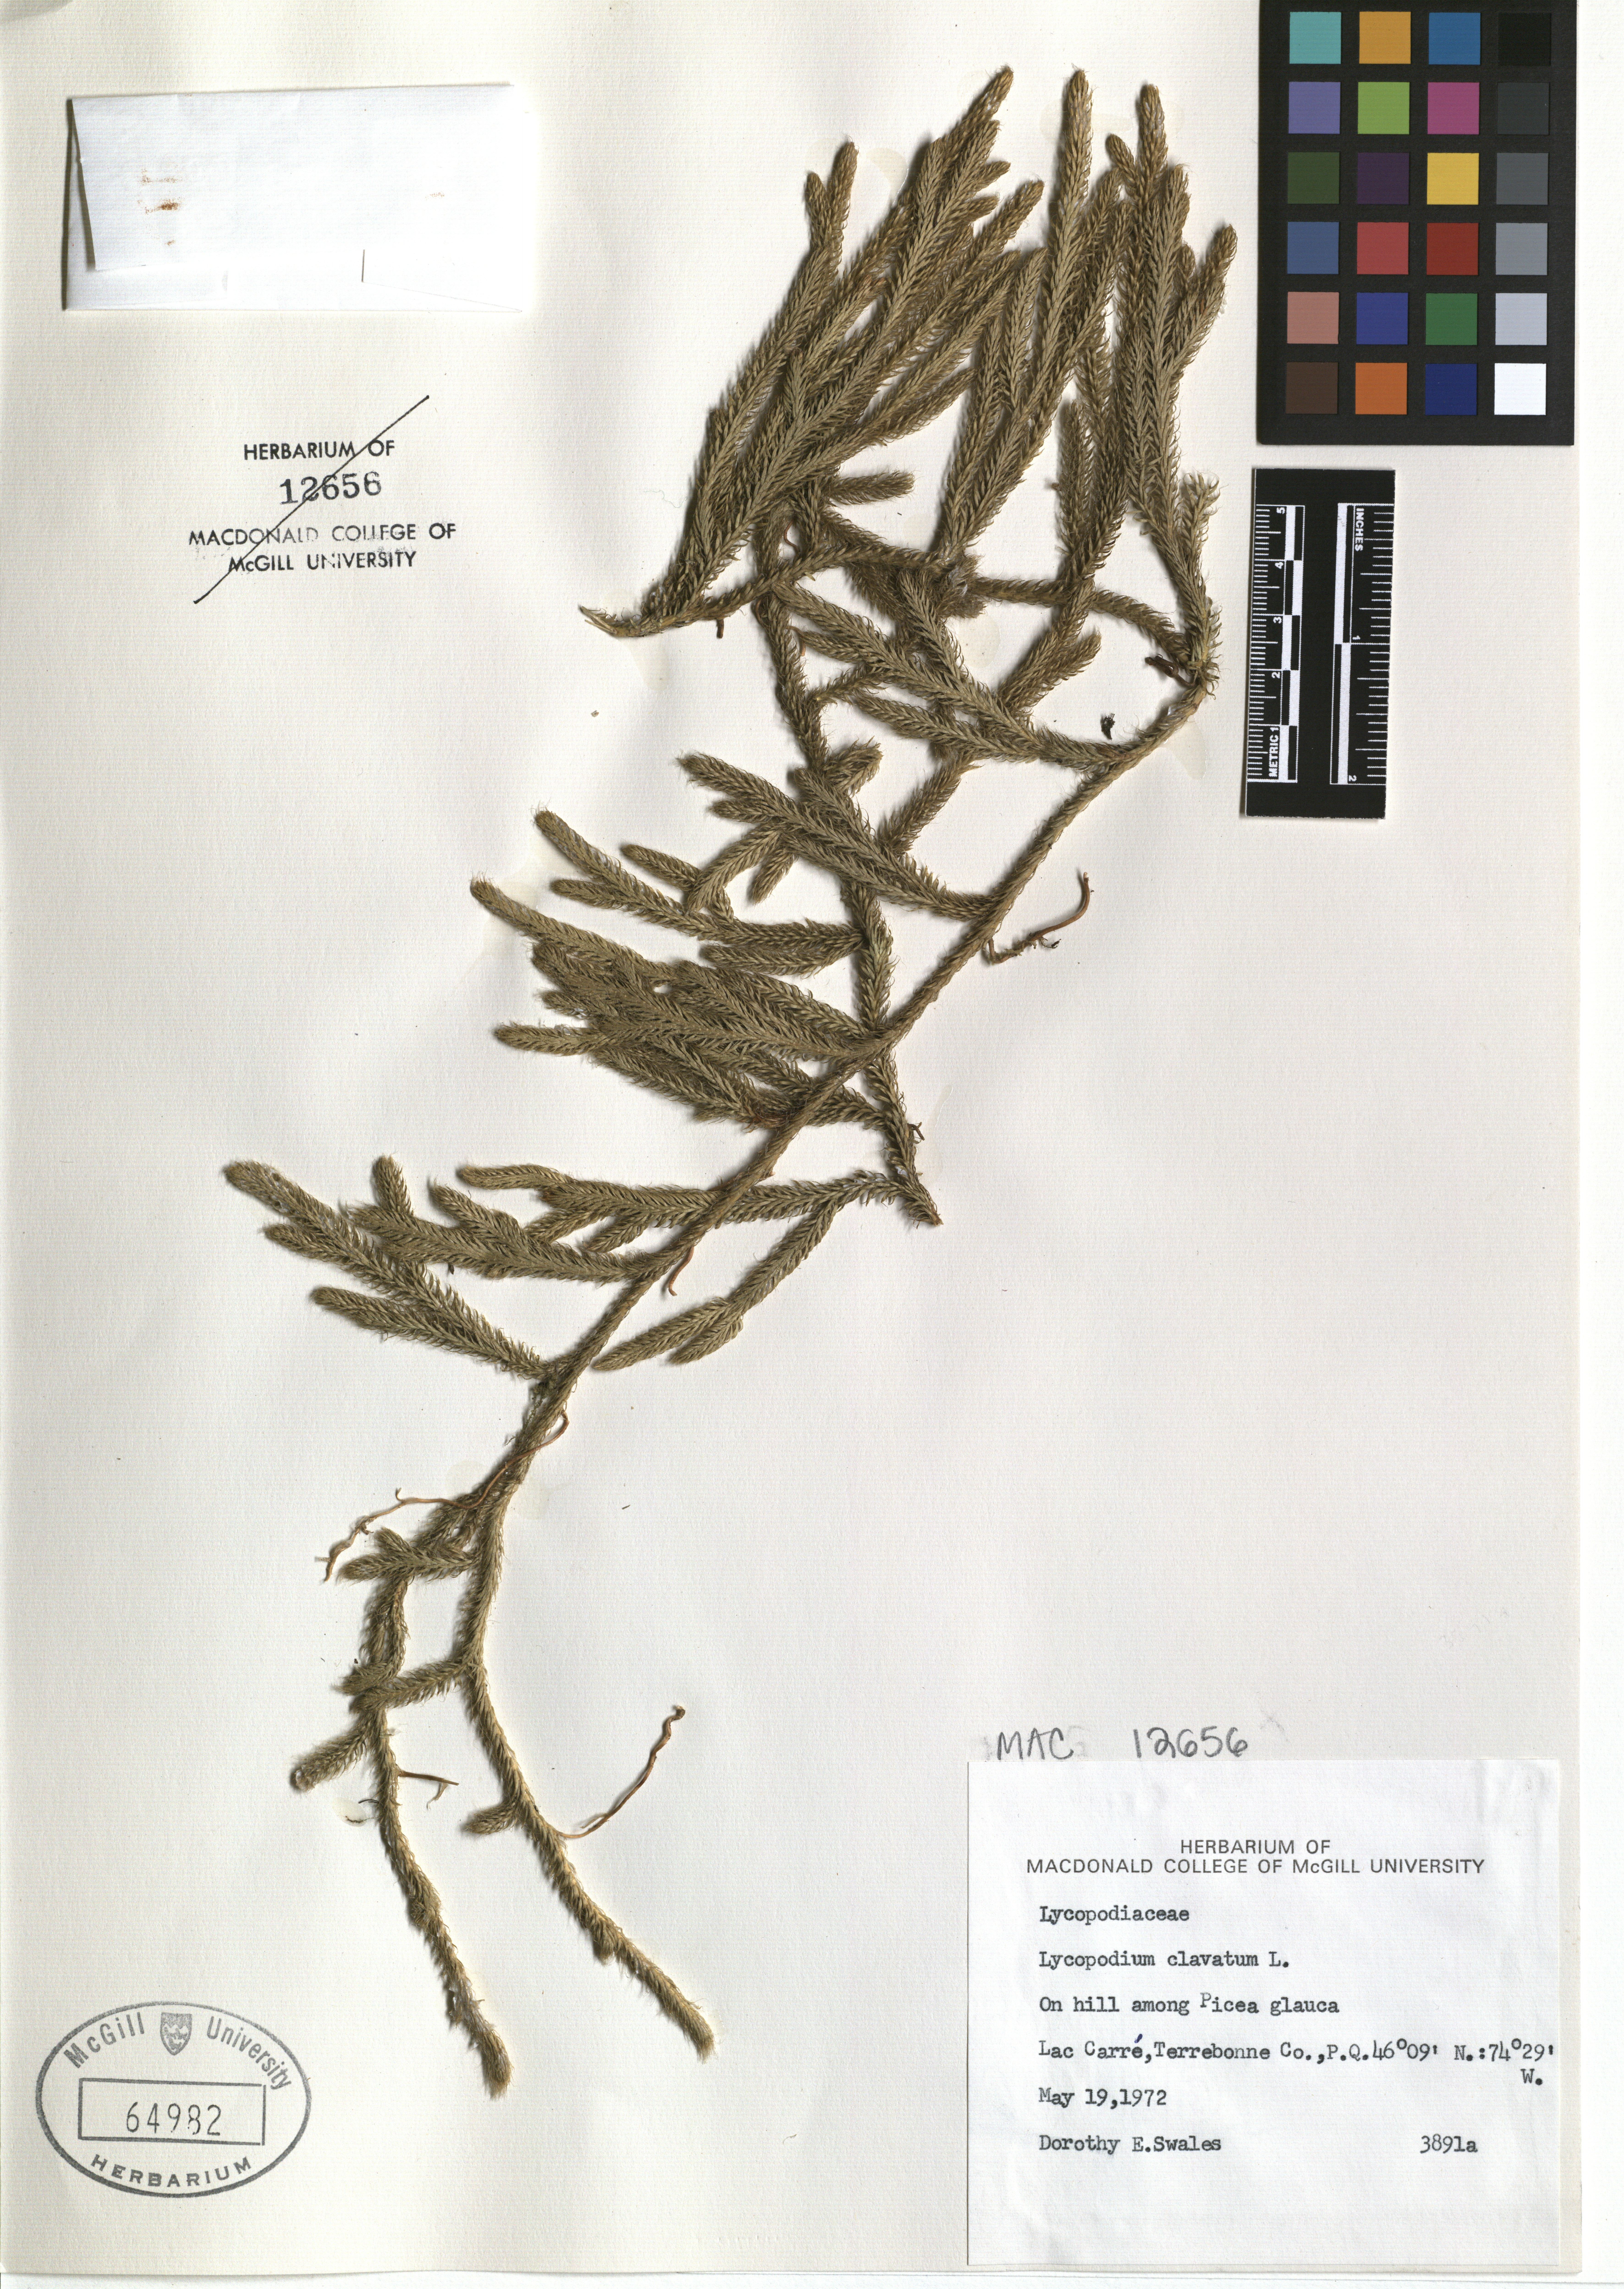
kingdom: Plantae
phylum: Tracheophyta
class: Lycopodiopsida
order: Lycopodiales
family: Lycopodiaceae
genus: Lycopodium
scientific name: Lycopodium clavatum
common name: Stag's-horn clubmoss
